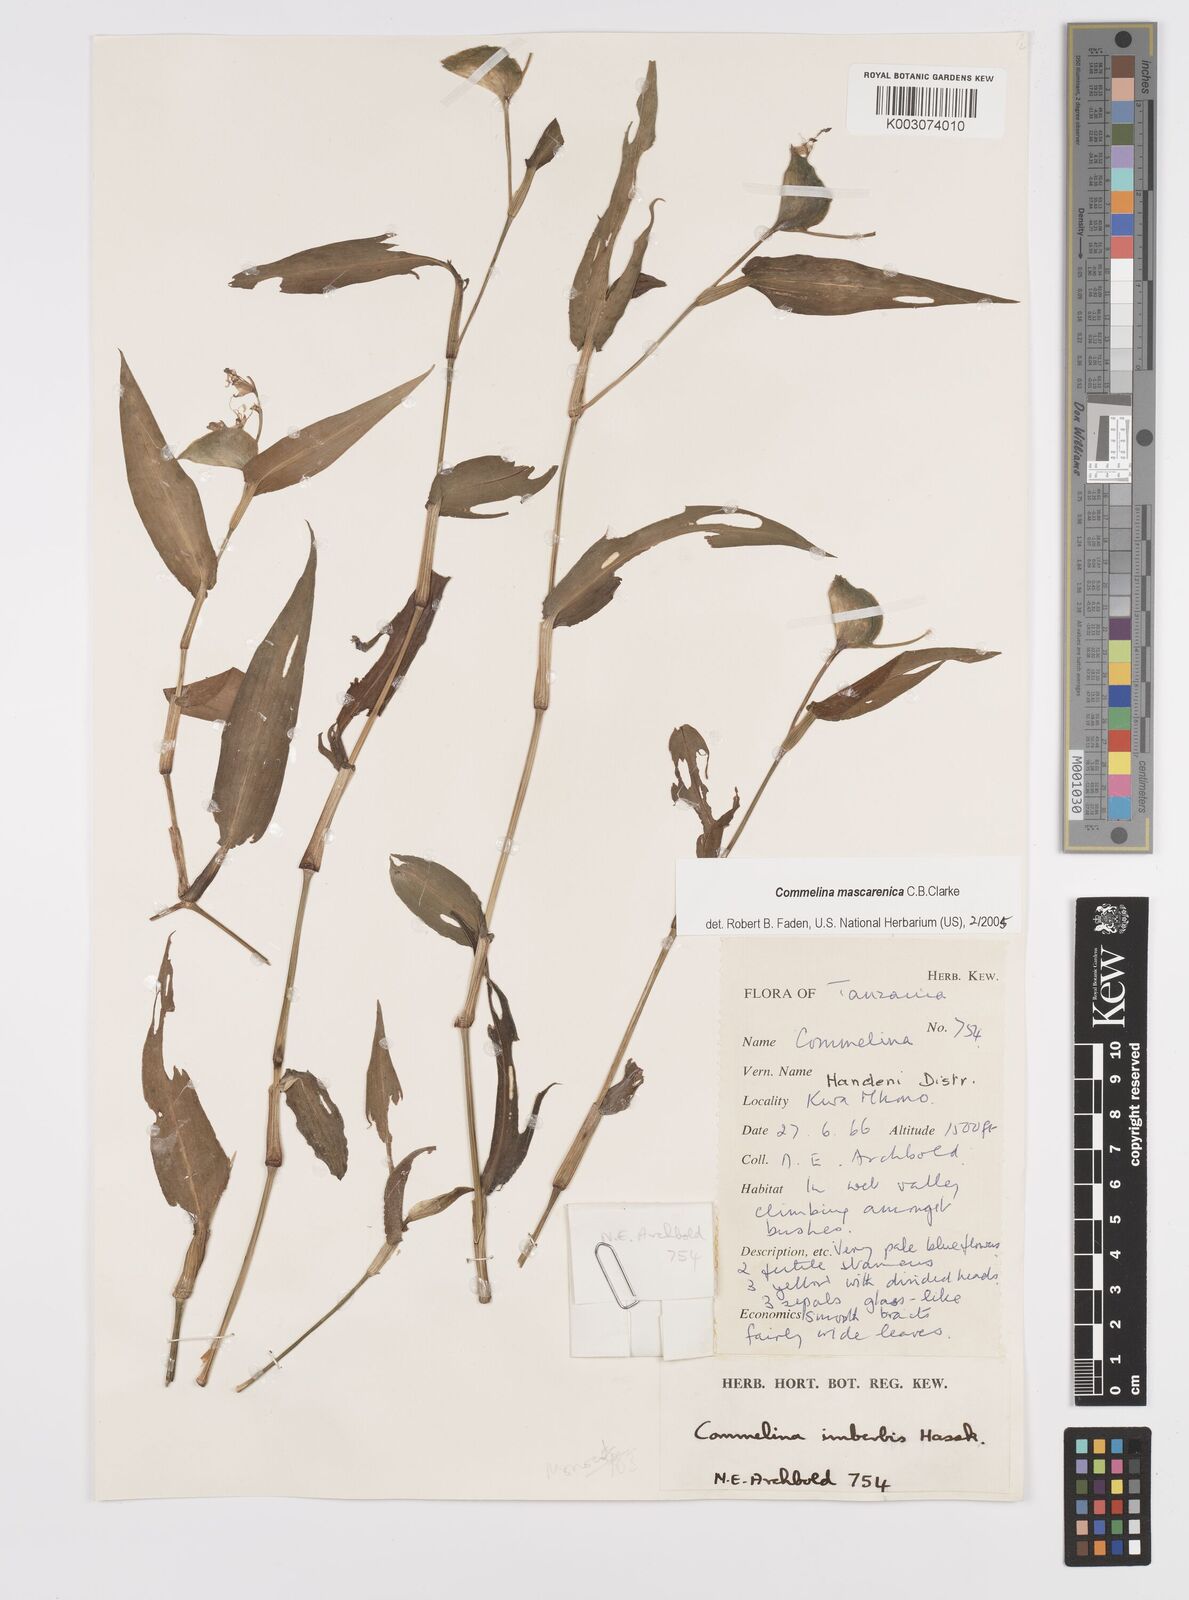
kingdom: Plantae
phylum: Tracheophyta
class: Liliopsida
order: Commelinales
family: Commelinaceae
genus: Commelina
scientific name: Commelina mascarenica
